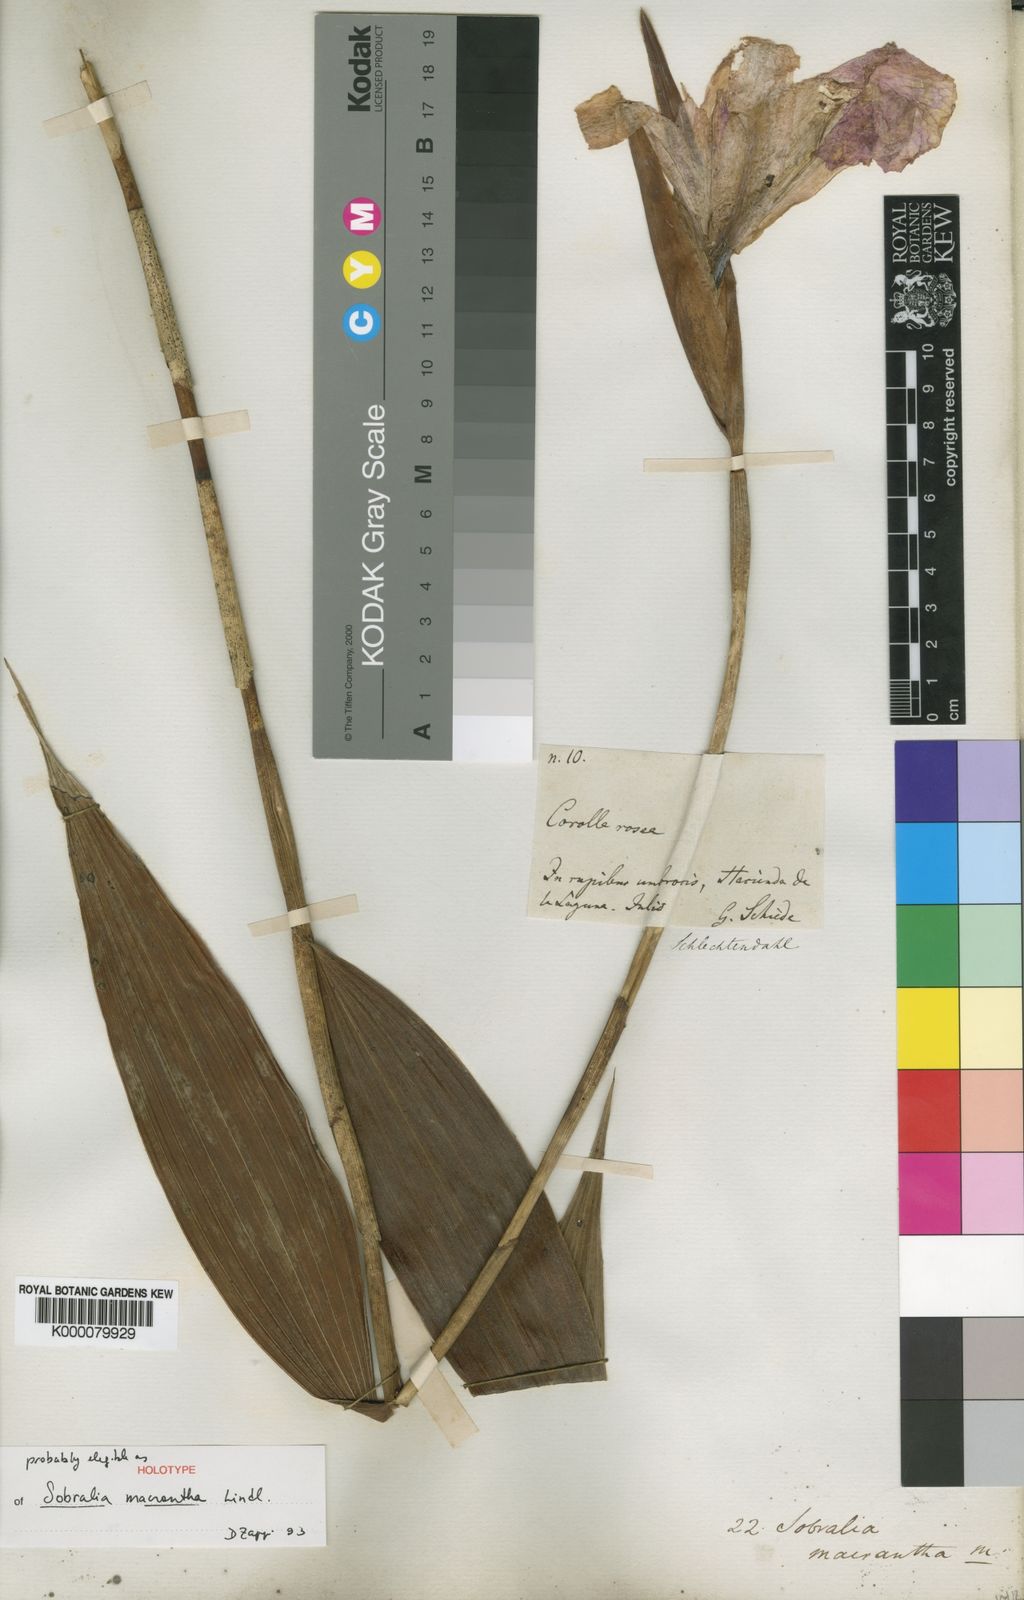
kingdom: Plantae
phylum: Tracheophyta
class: Liliopsida
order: Asparagales
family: Orchidaceae
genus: Sobralia
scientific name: Sobralia macrantha
